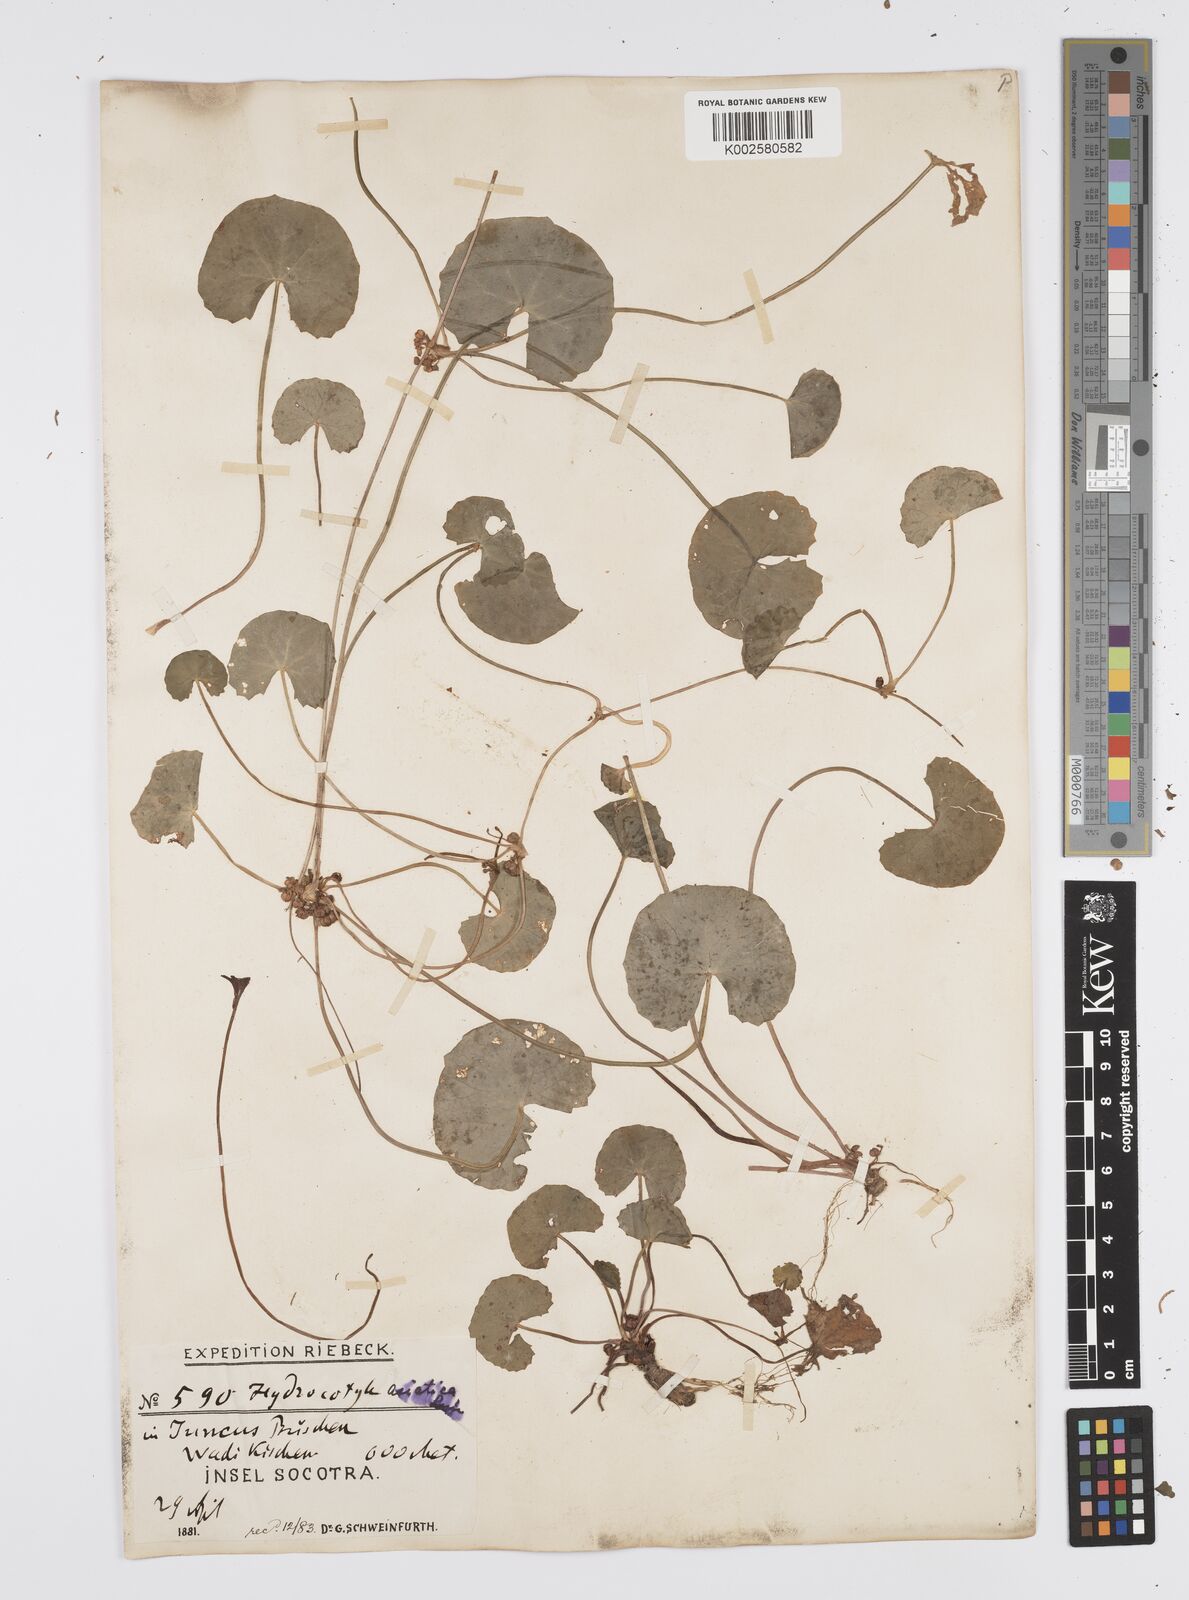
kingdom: Plantae
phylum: Tracheophyta
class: Magnoliopsida
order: Apiales
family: Apiaceae
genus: Centella
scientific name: Centella asiatica
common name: Spadeleaf
